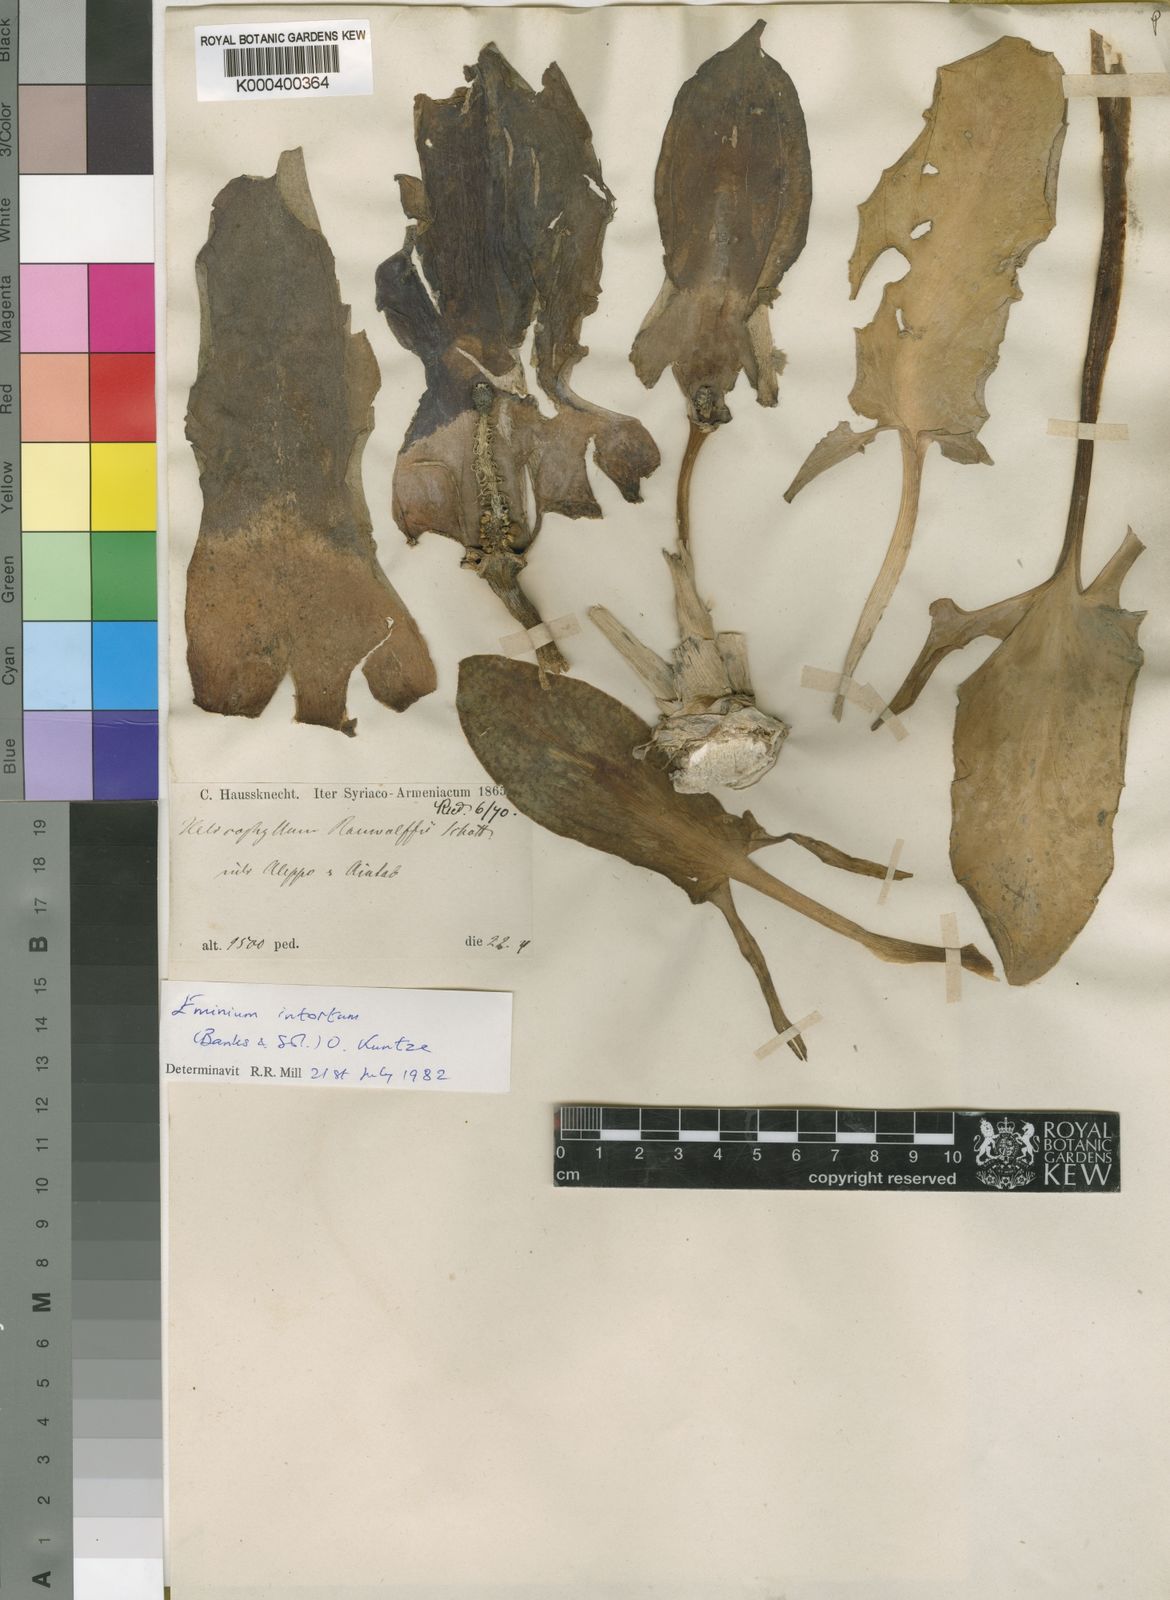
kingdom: Plantae
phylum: Tracheophyta
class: Liliopsida
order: Alismatales
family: Araceae
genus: Eminium
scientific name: Eminium intortum
